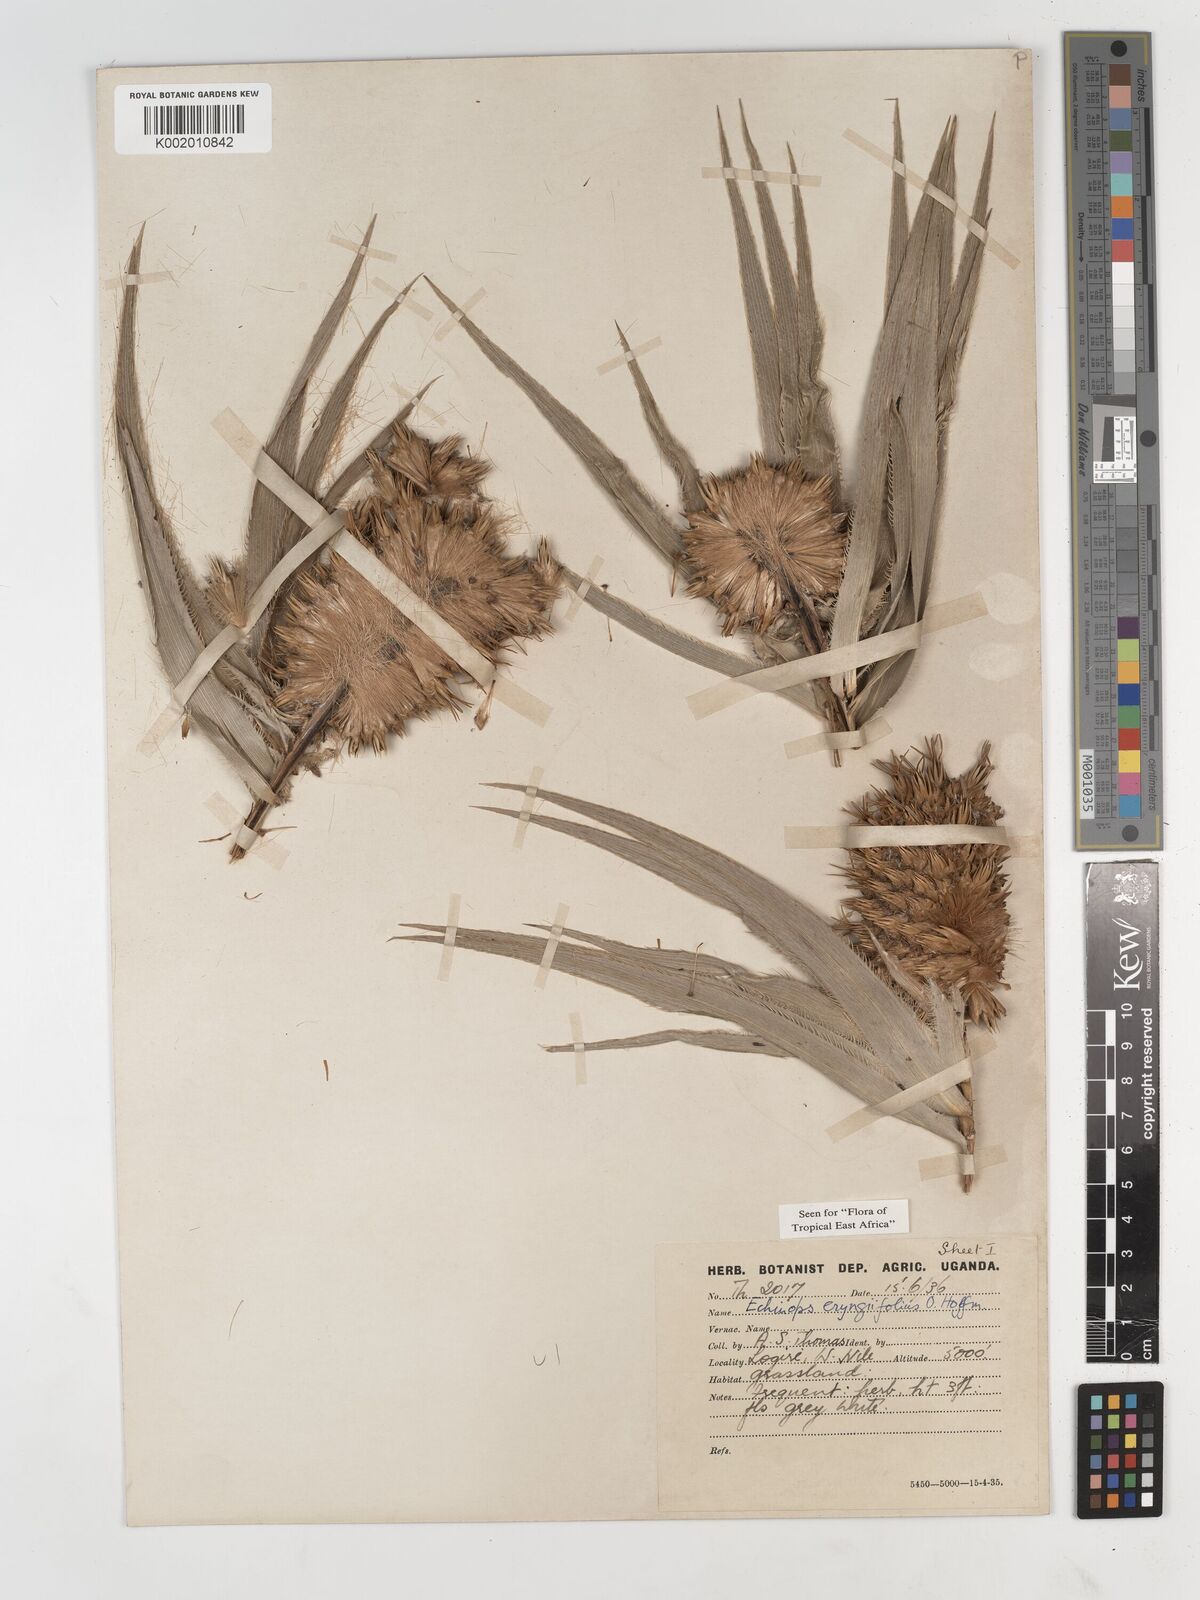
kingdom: Plantae
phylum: Tracheophyta
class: Magnoliopsida
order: Asterales
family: Asteraceae
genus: Echinops
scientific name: Echinops eryngiifolius
